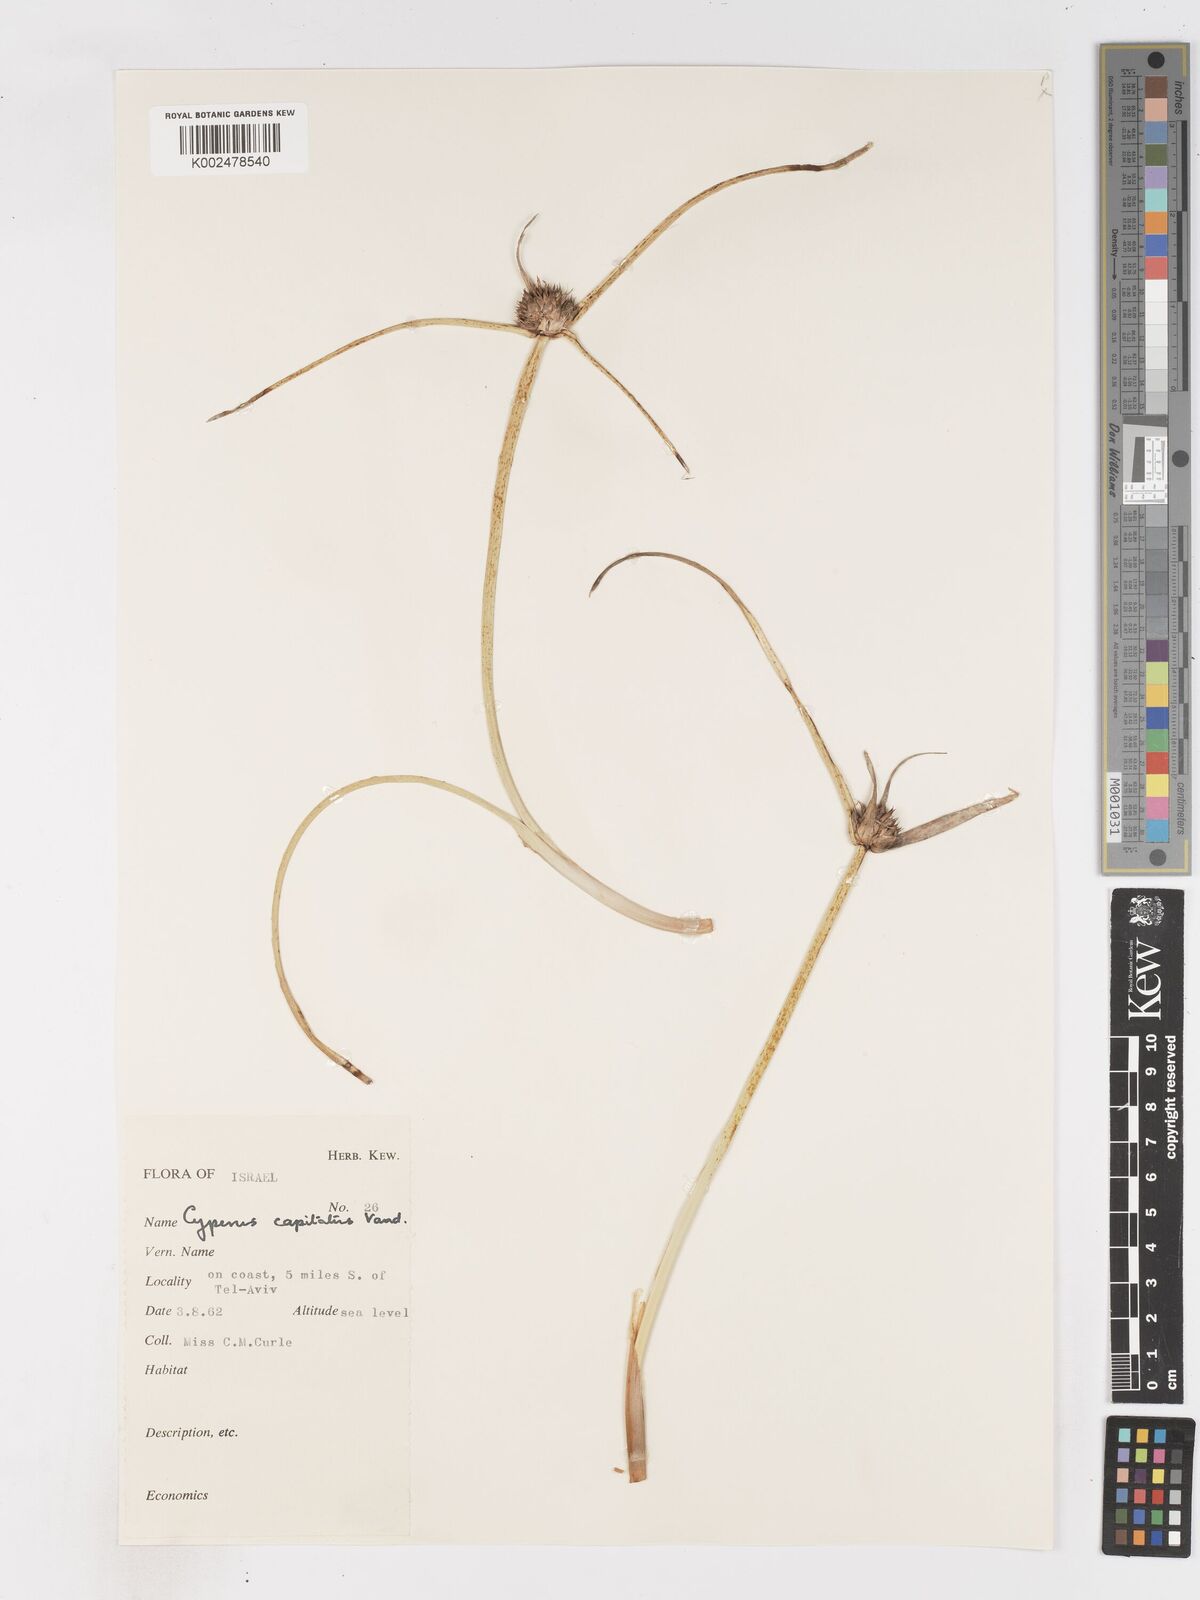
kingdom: Plantae
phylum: Tracheophyta
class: Liliopsida
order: Poales
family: Cyperaceae
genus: Cyperus
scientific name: Cyperus capitatus
